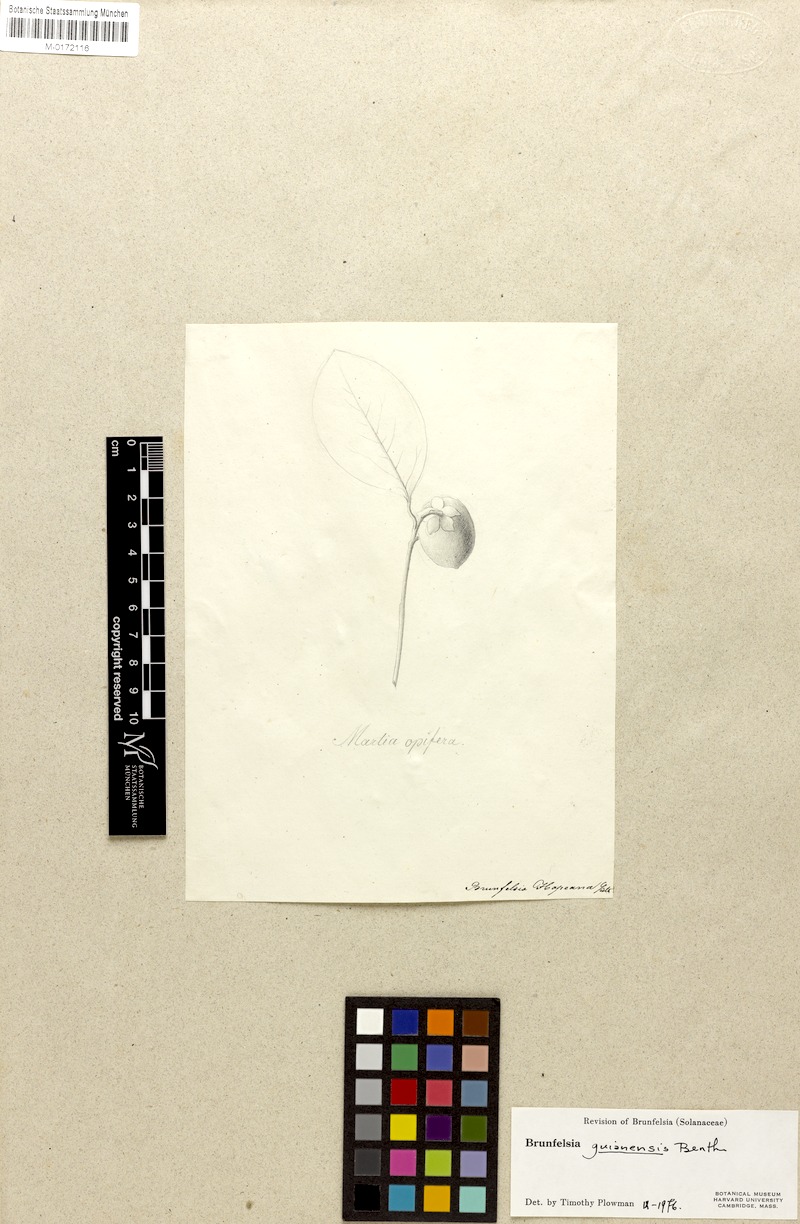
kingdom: Plantae
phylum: Tracheophyta
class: Magnoliopsida
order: Solanales
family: Solanaceae
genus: Brunfelsia
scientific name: Brunfelsia guianensis
